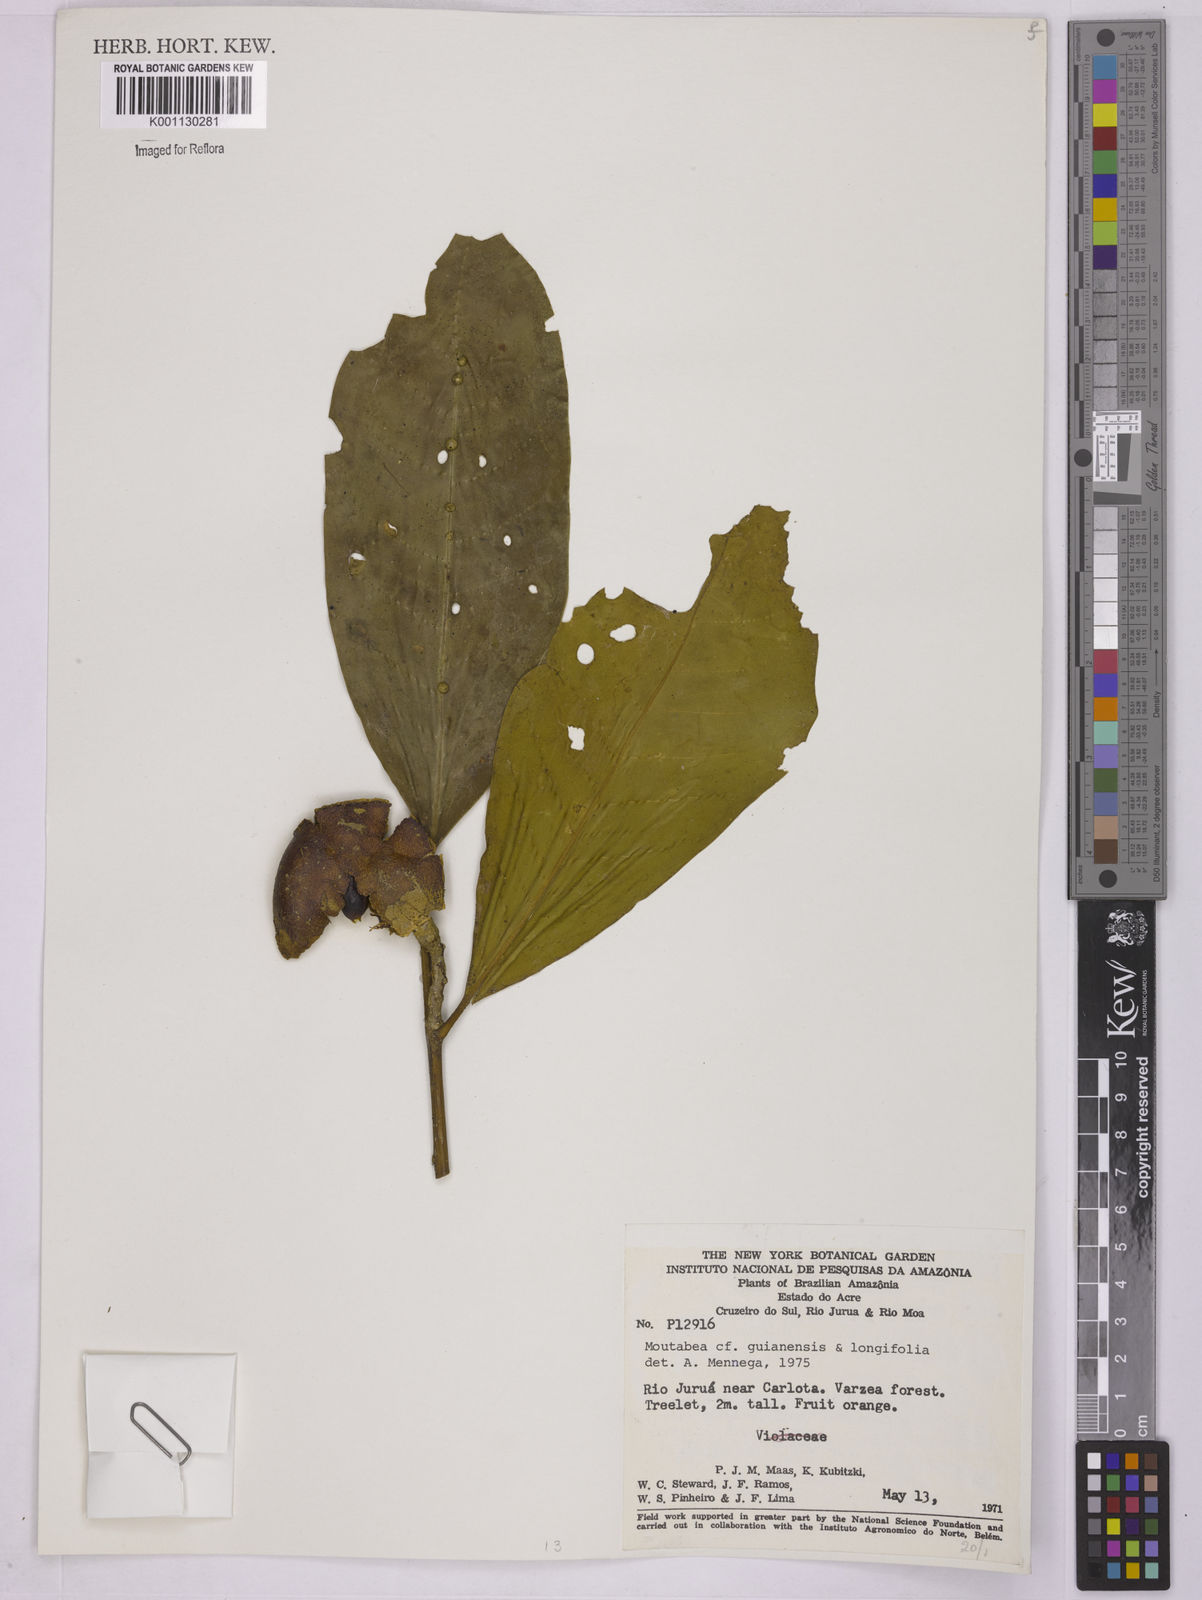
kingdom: Plantae
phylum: Tracheophyta
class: Magnoliopsida
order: Fabales
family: Polygalaceae
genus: Moutabea
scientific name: Moutabea guianensis
